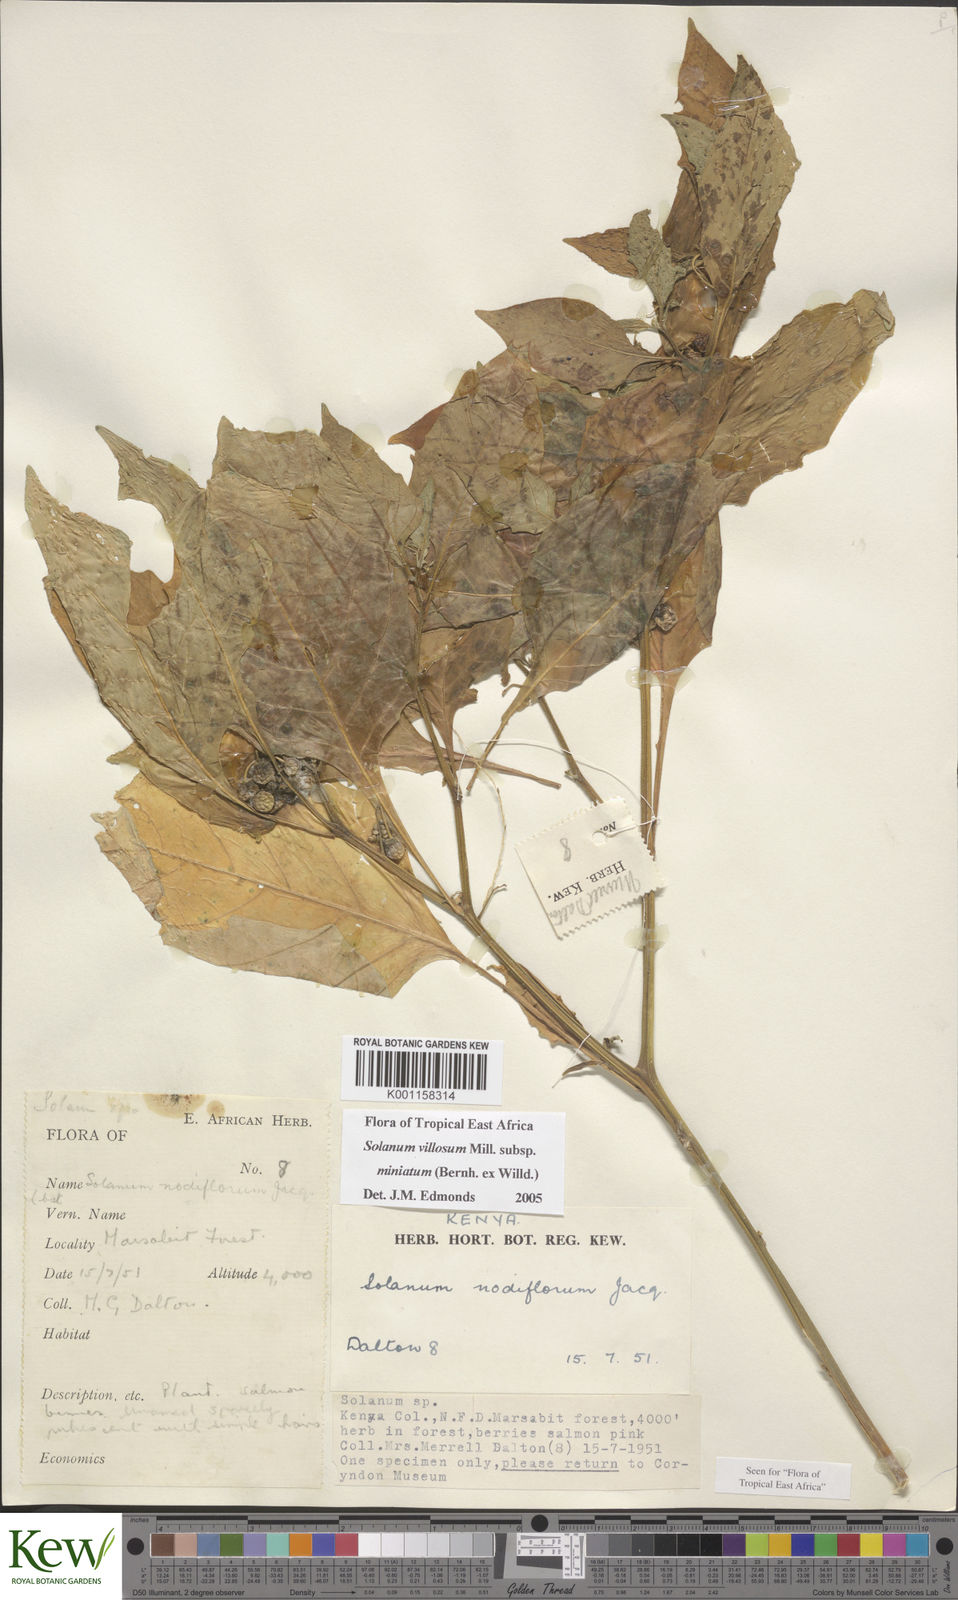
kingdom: Plantae
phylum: Tracheophyta
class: Magnoliopsida
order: Solanales
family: Solanaceae
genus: Solanum
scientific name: Solanum villosum
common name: Red nightshade
